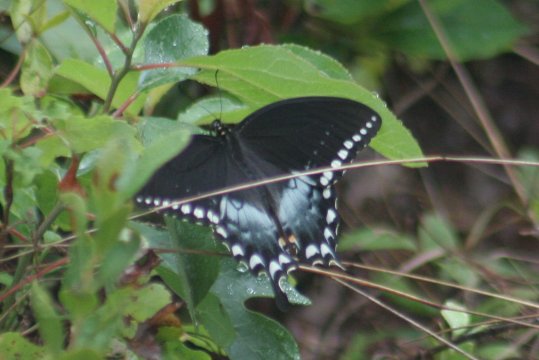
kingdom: Animalia
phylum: Arthropoda
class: Insecta
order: Lepidoptera
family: Papilionidae
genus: Pterourus
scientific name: Pterourus troilus
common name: Spicebush Swallowtail
